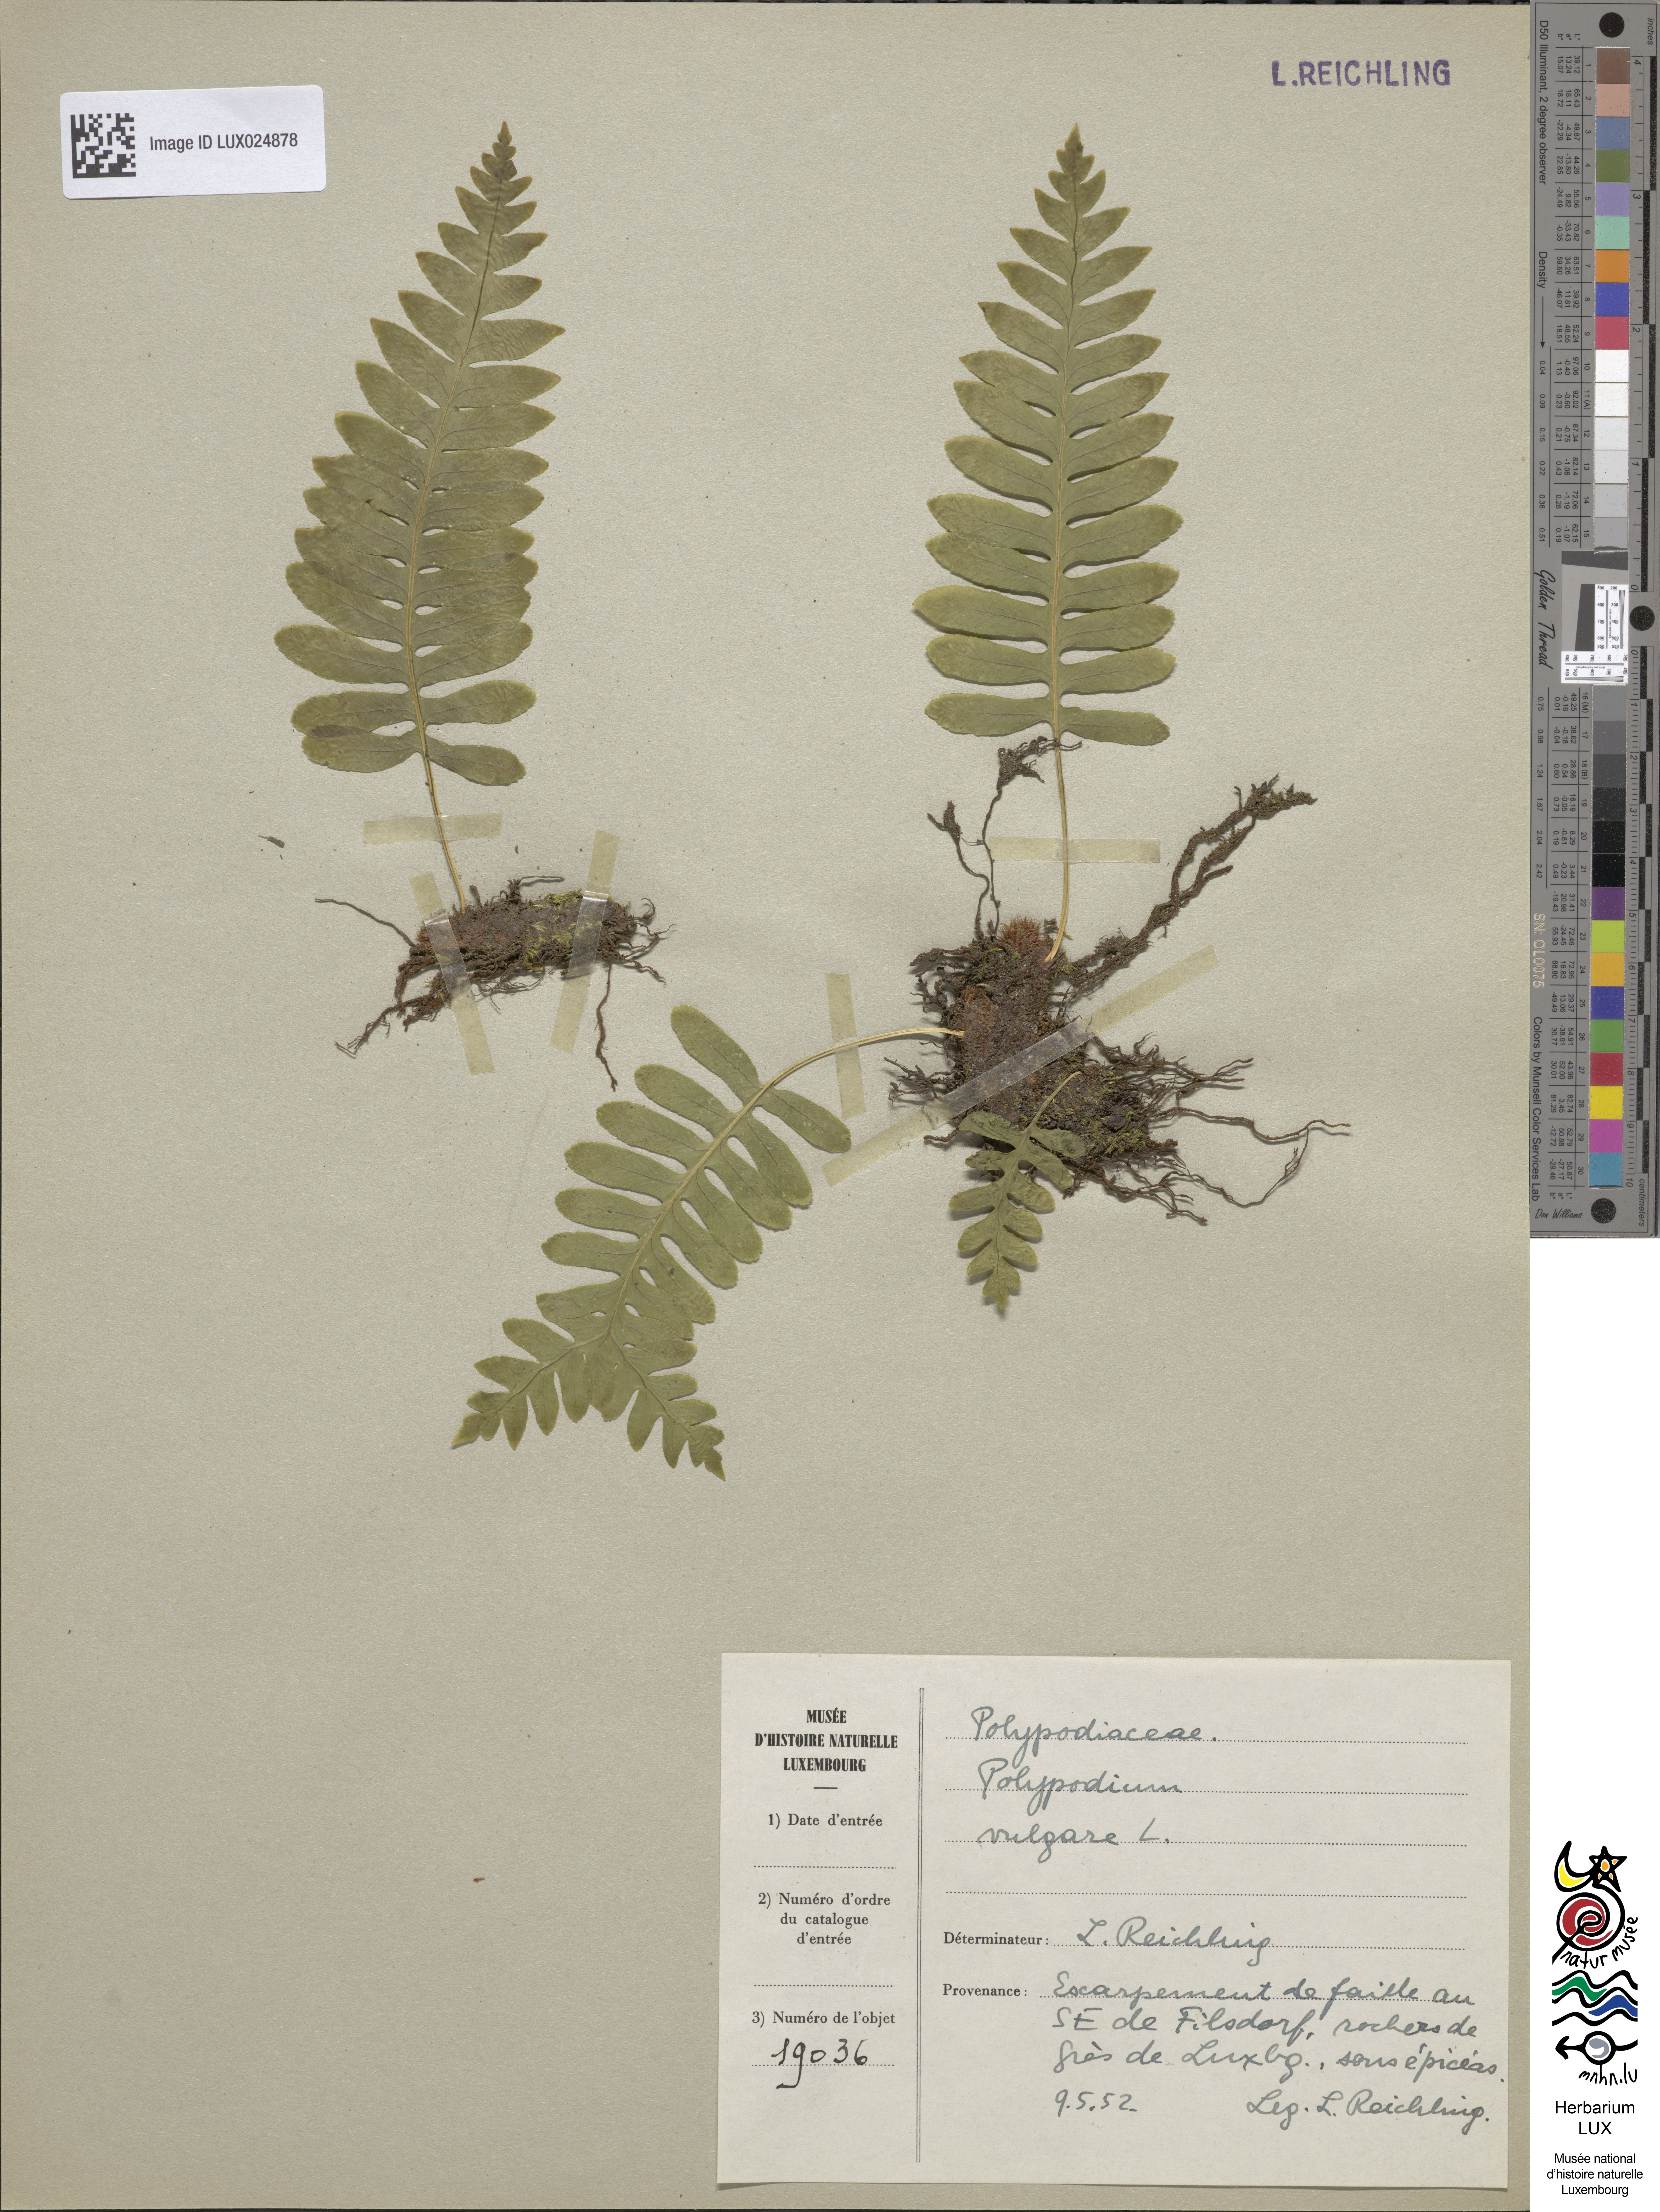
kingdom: Plantae
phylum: Tracheophyta
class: Polypodiopsida
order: Polypodiales
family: Polypodiaceae
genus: Polypodium
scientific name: Polypodium vulgare
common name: Common polypody
